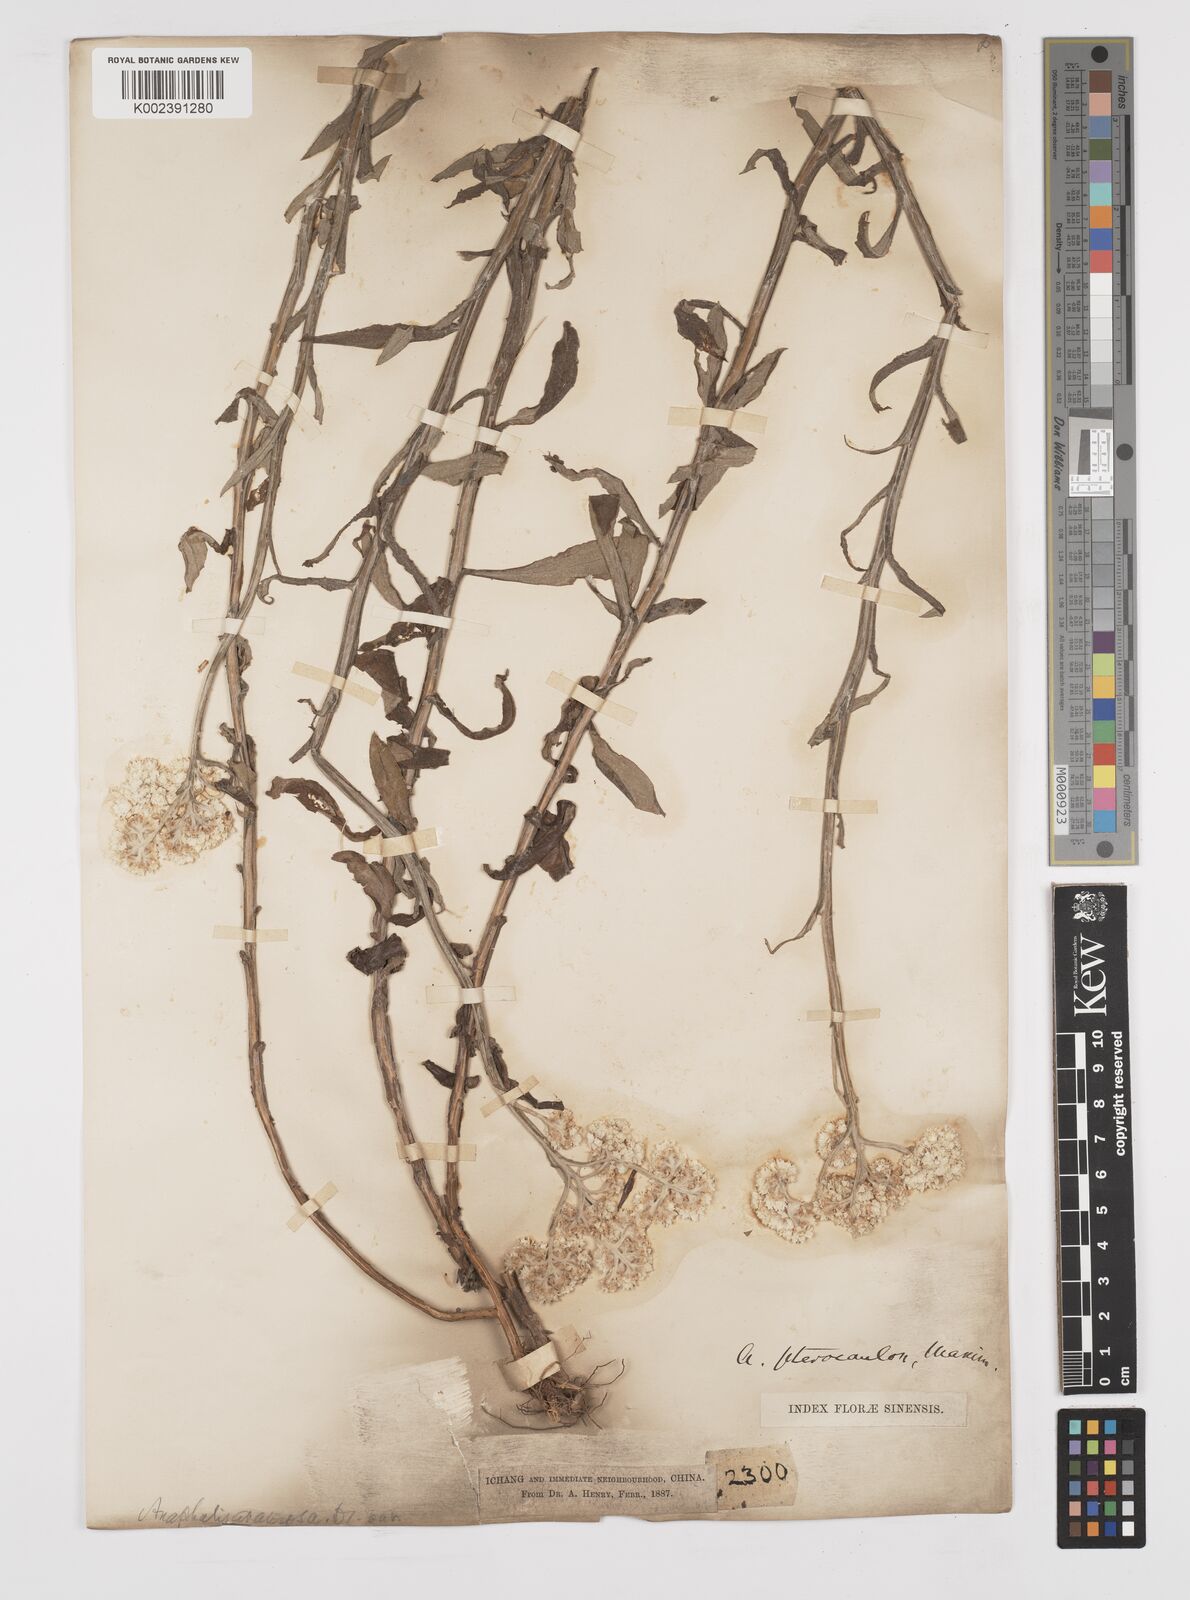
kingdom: Plantae
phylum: Tracheophyta
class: Magnoliopsida
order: Asterales
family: Asteraceae
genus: Anaphalis
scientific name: Anaphalis sinica
